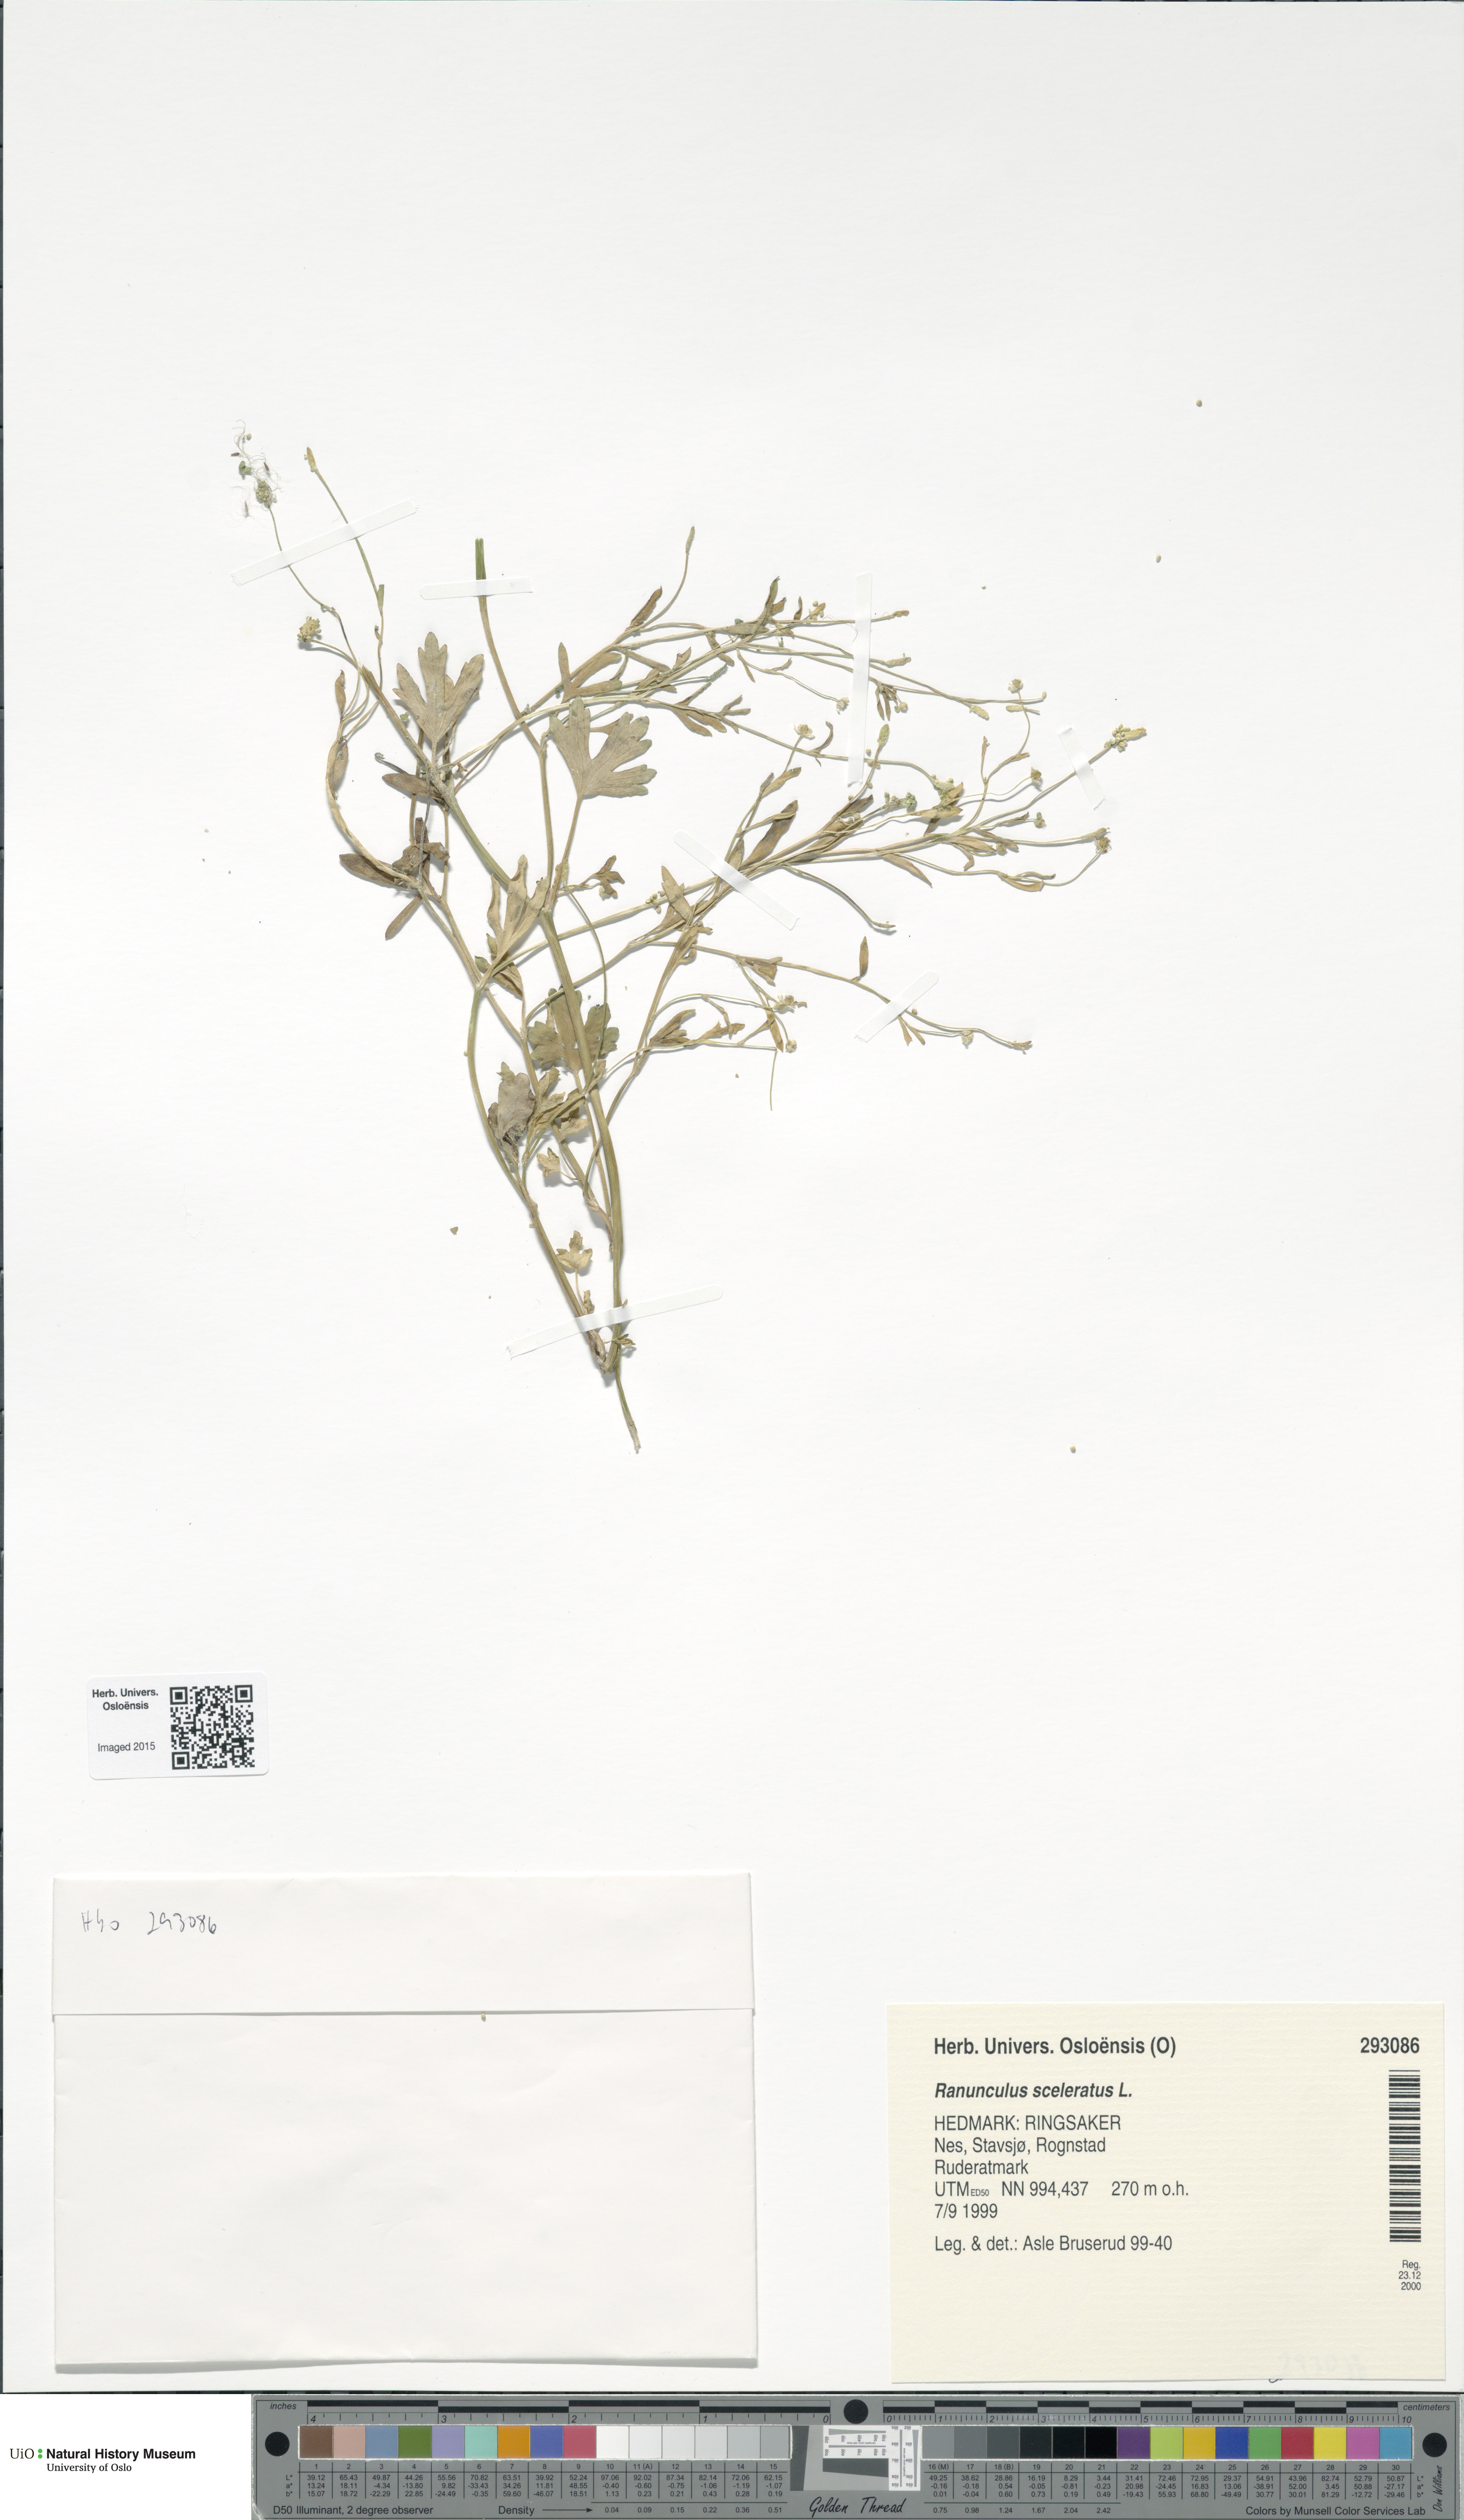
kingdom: Plantae
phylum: Tracheophyta
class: Magnoliopsida
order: Ranunculales
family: Ranunculaceae
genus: Ranunculus
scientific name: Ranunculus sceleratus
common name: Celery-leaved buttercup
